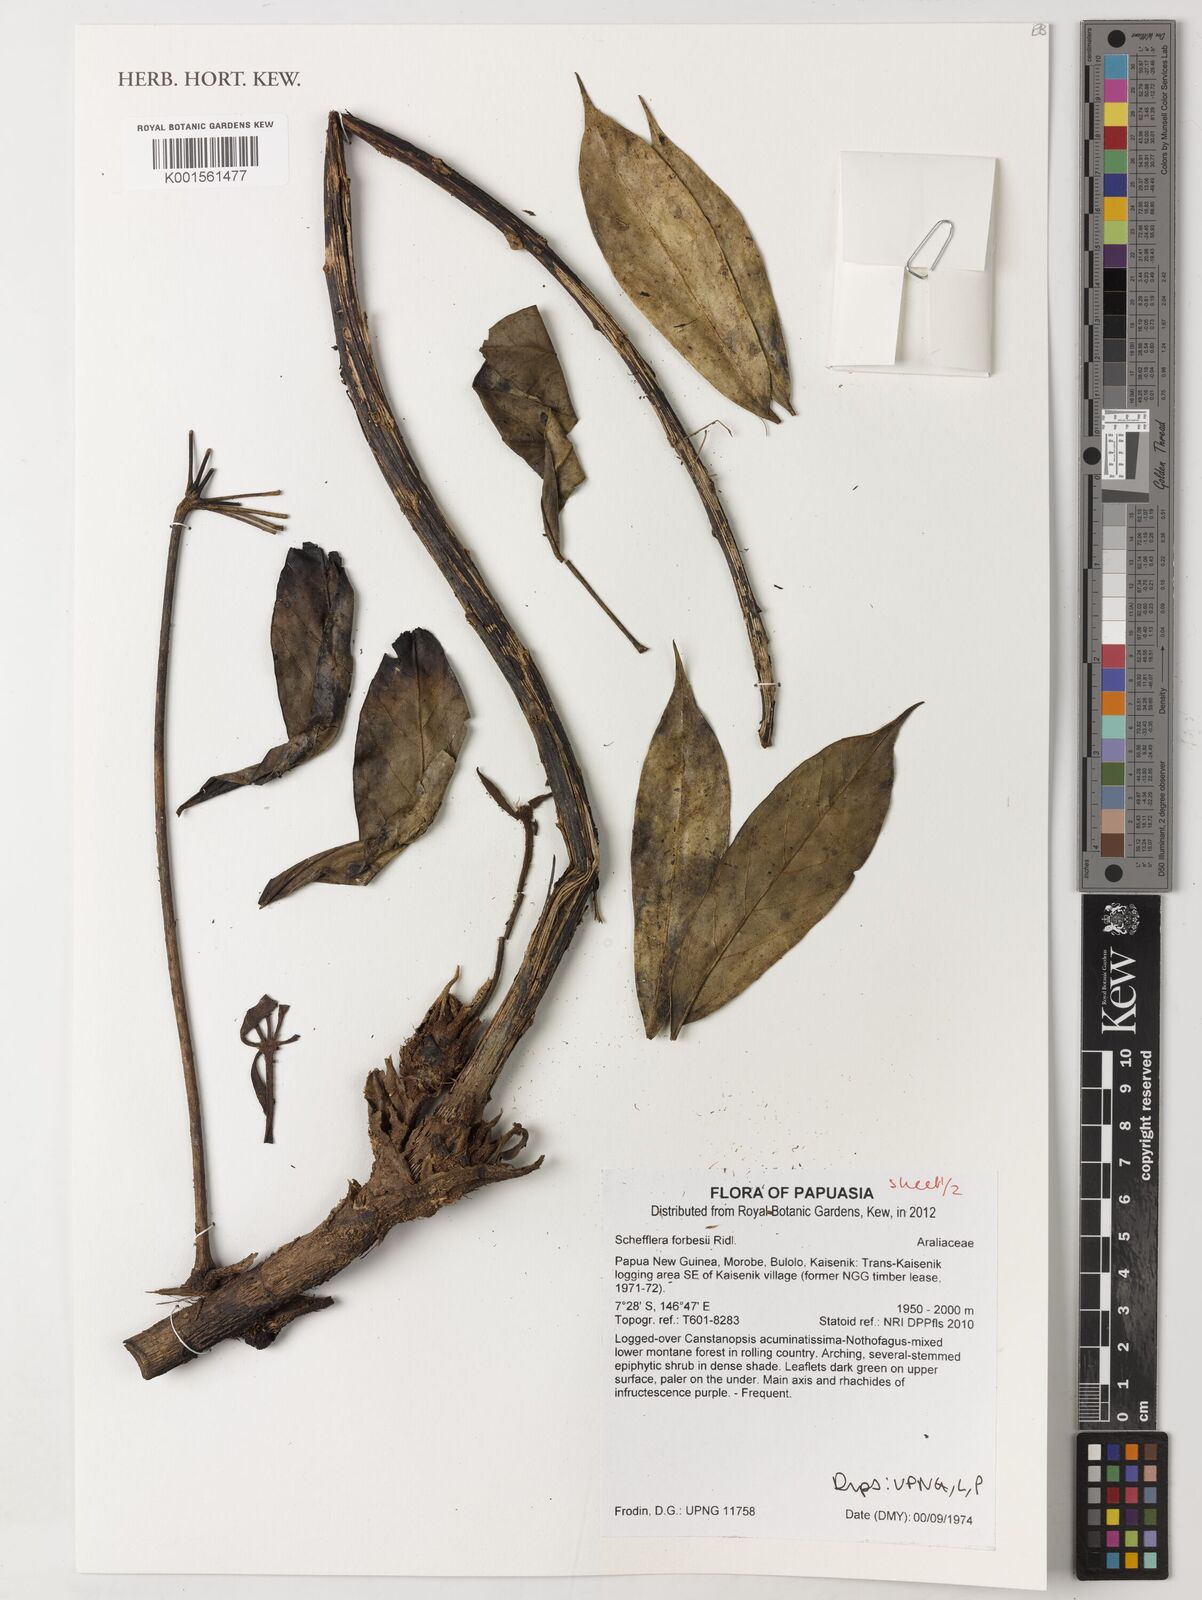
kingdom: Plantae
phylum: Tracheophyta
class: Magnoliopsida
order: Apiales
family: Araliaceae
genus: Heptapleurum
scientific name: Heptapleurum forbesii
